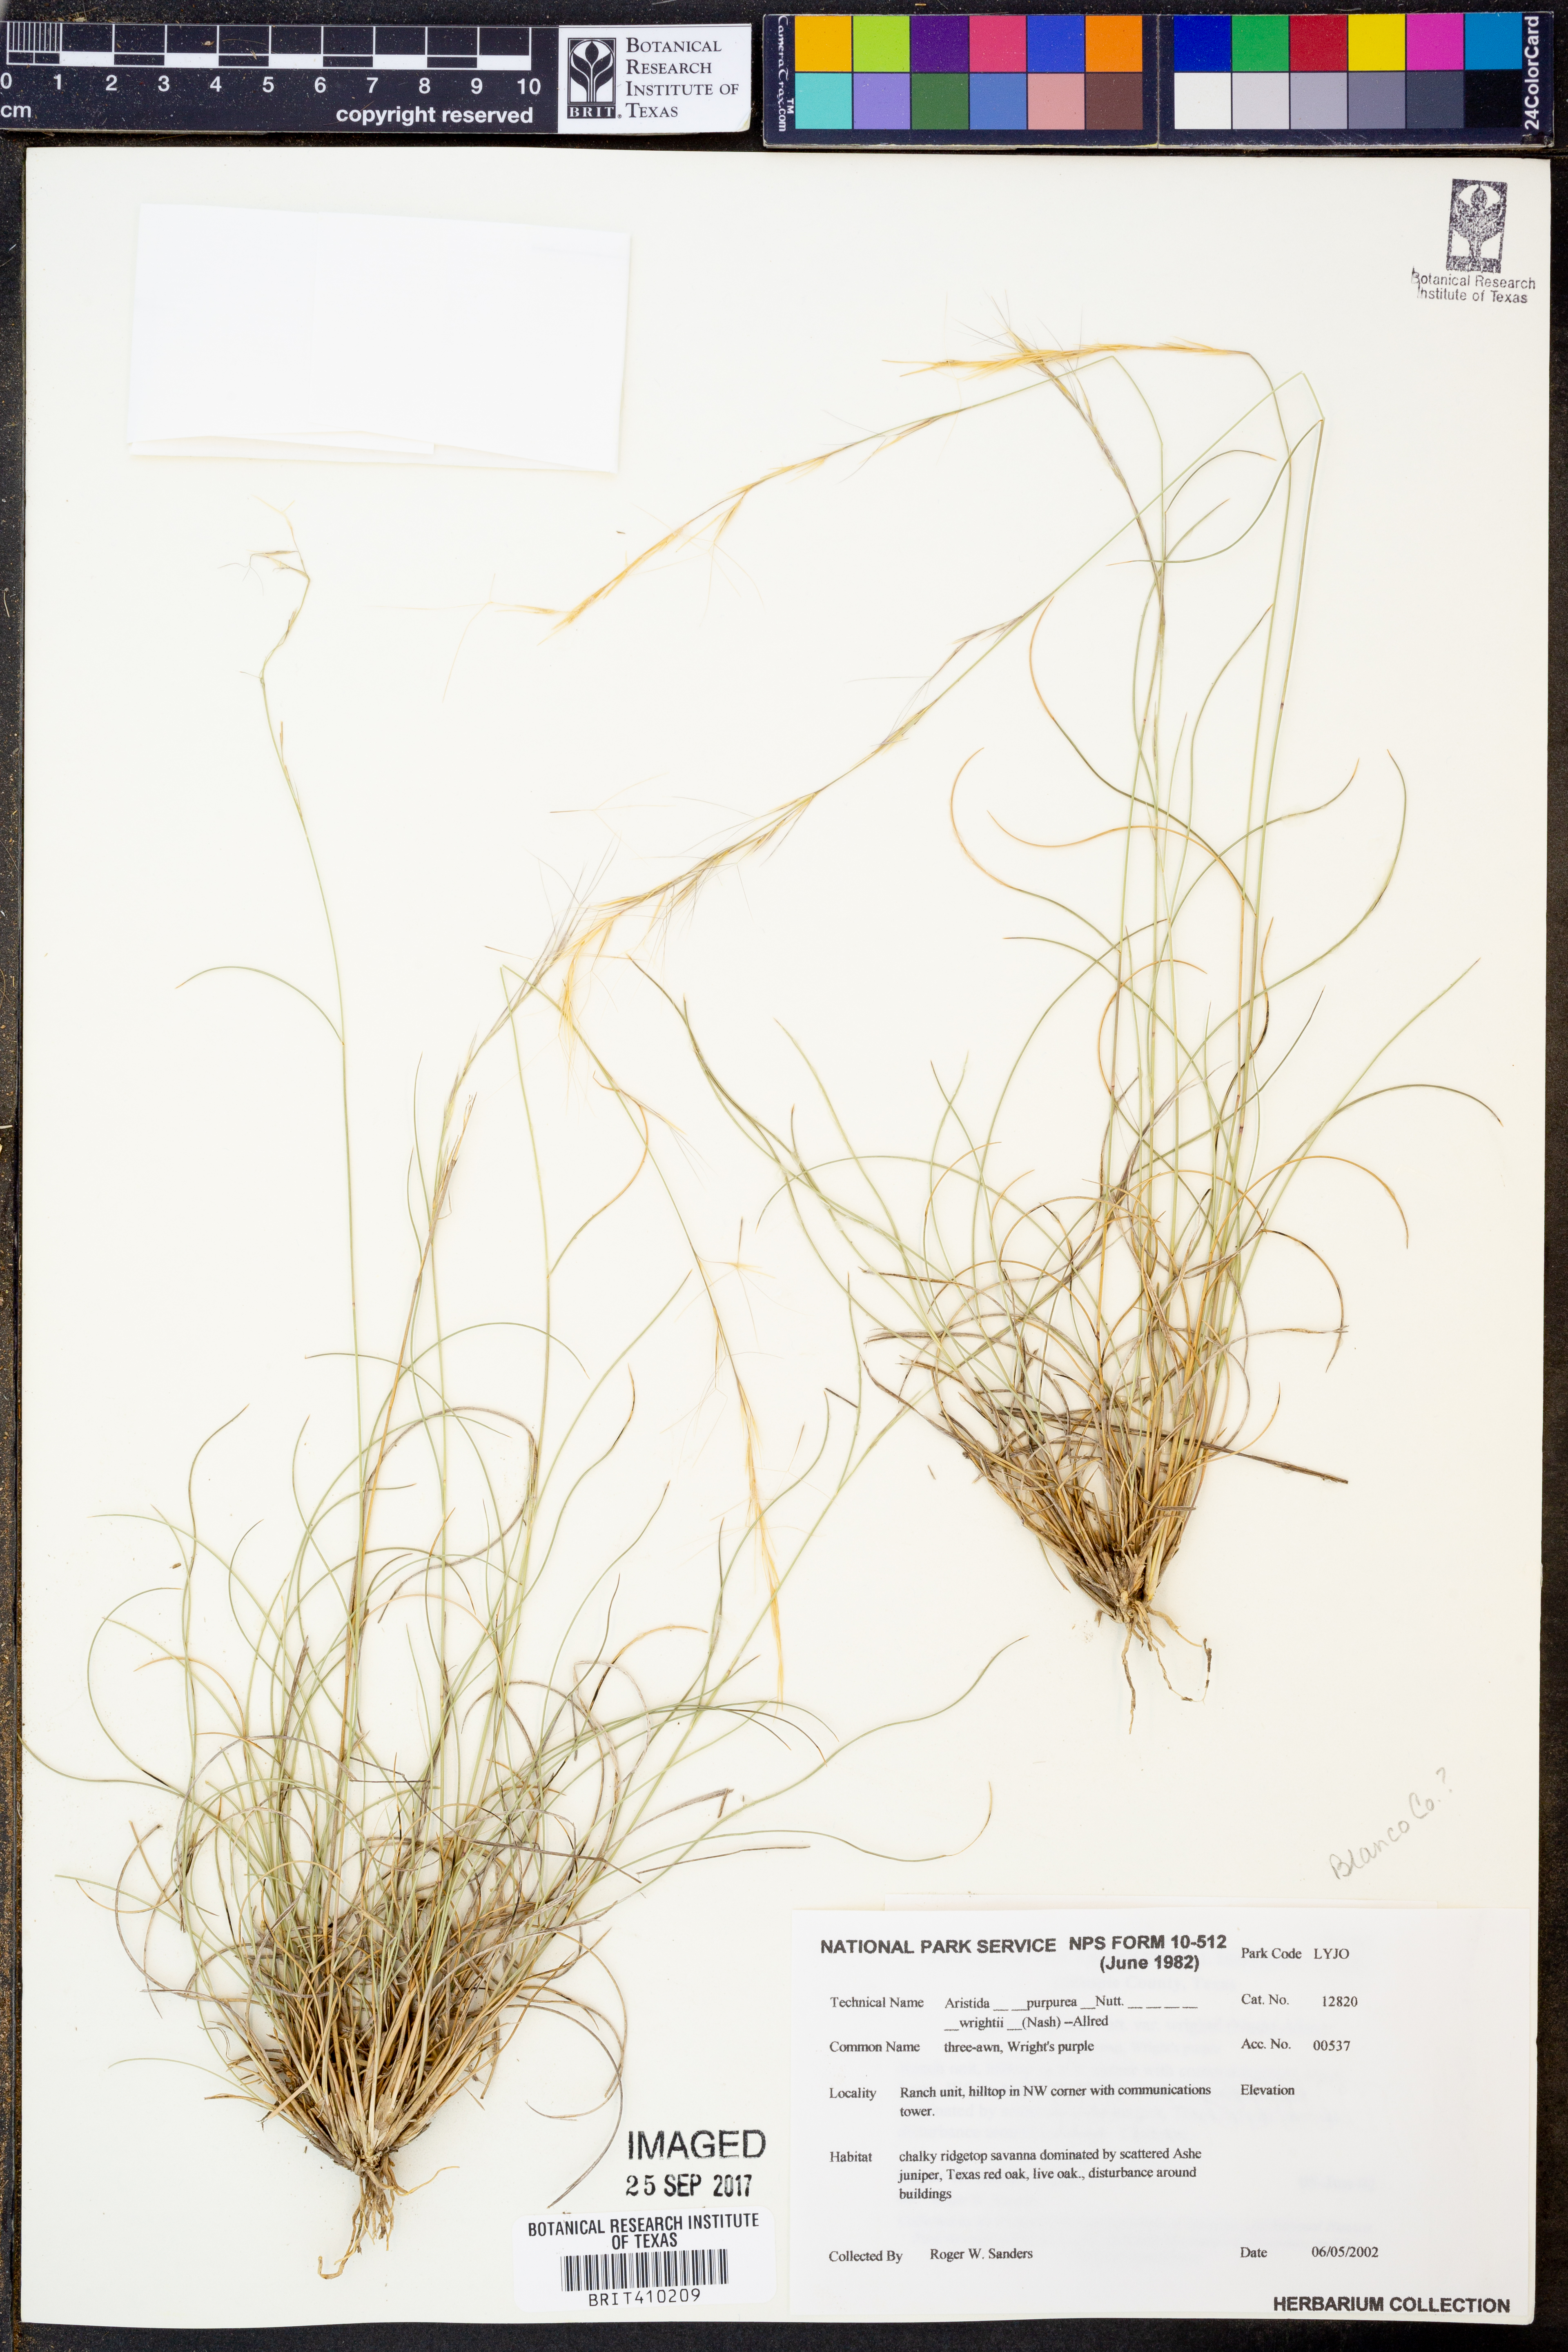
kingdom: Plantae
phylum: Tracheophyta
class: Liliopsida
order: Poales
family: Poaceae
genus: Aristida
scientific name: Aristida wrightii
